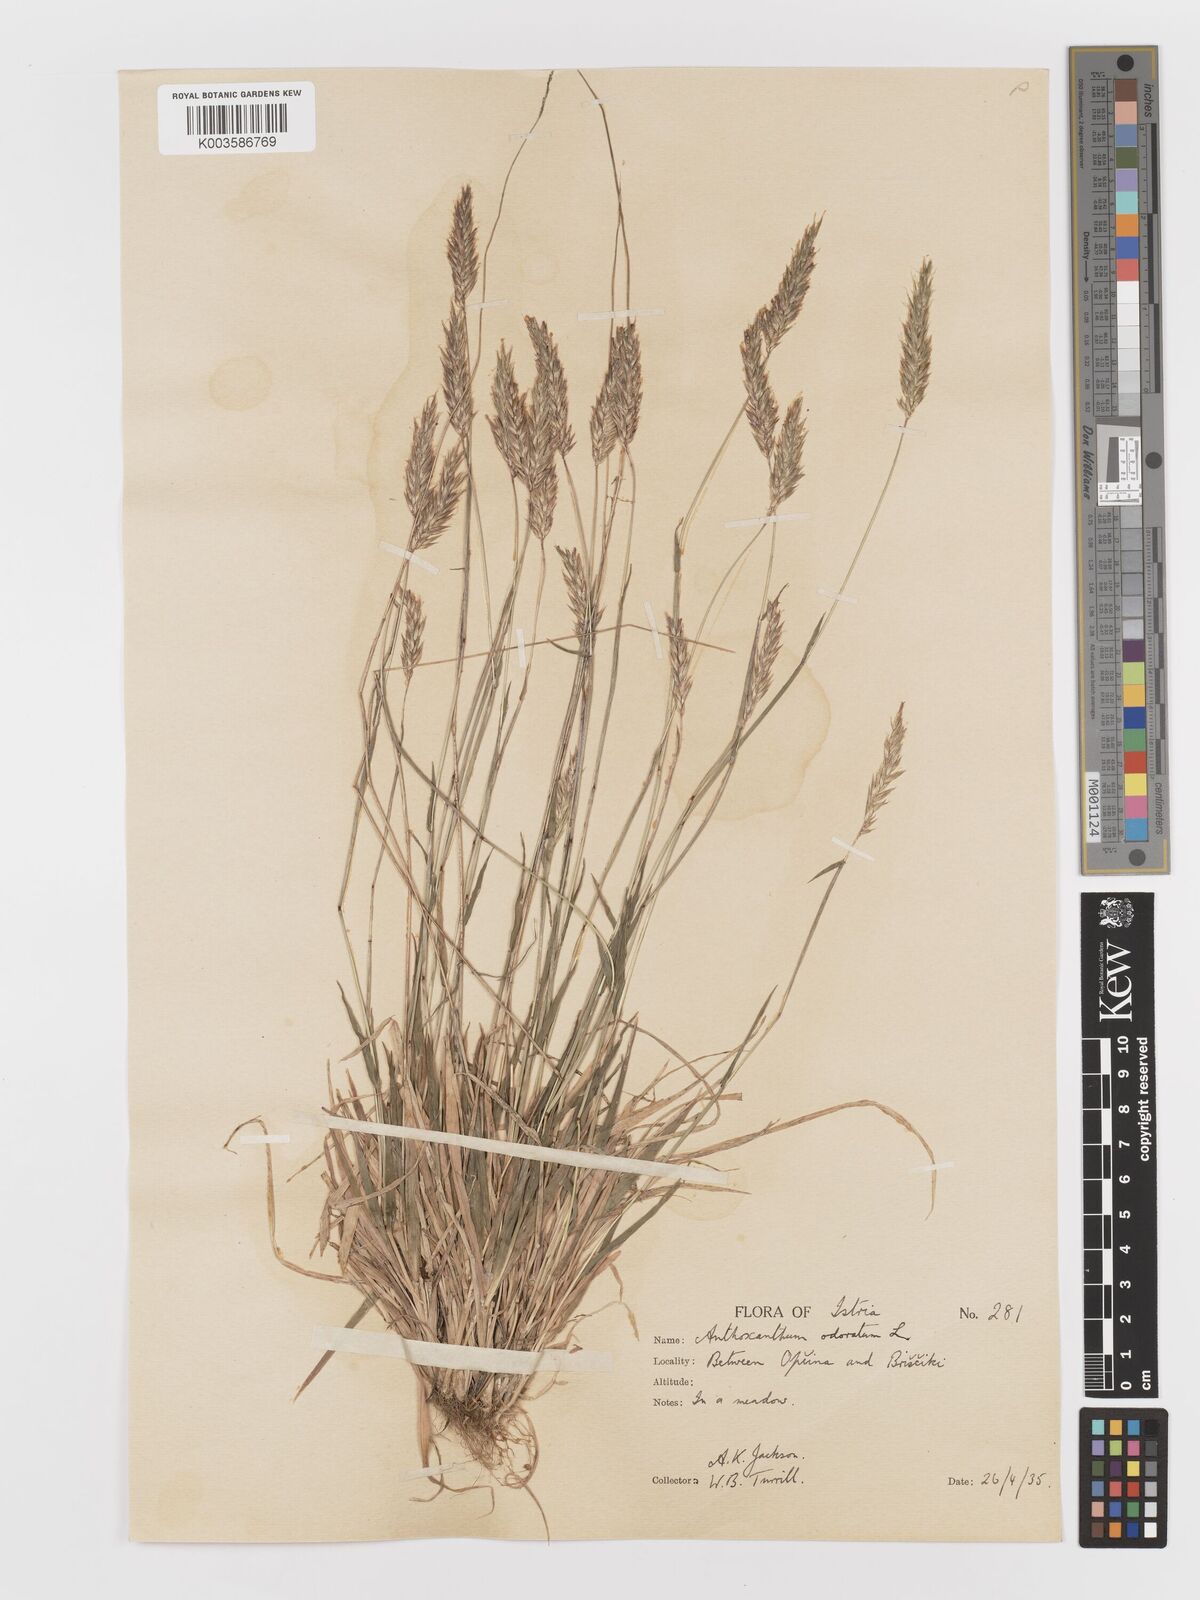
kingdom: Plantae
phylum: Tracheophyta
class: Liliopsida
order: Poales
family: Poaceae
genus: Anthoxanthum
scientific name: Anthoxanthum odoratum
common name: Sweet vernalgrass
